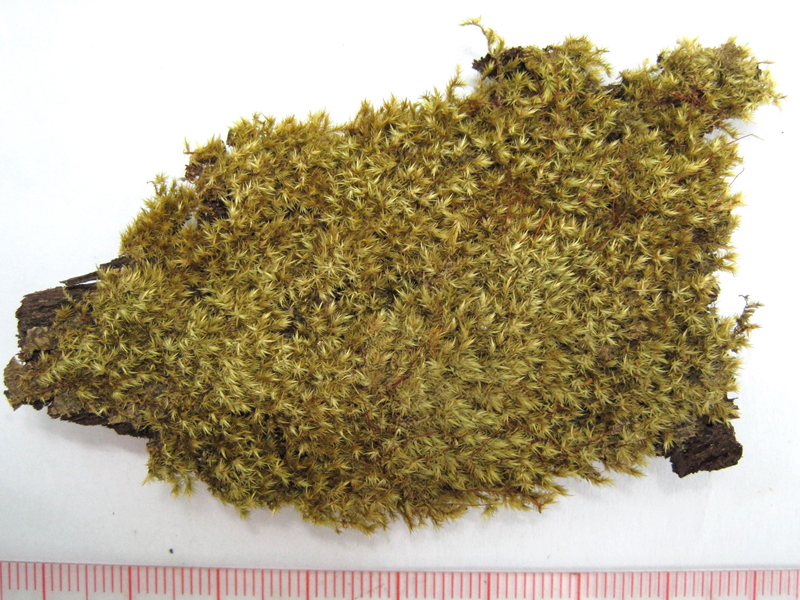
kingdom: Plantae
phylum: Bryophyta
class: Bryopsida
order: Hypnales
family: Sematophyllaceae
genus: Acroporium
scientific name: Acroporium secundum
